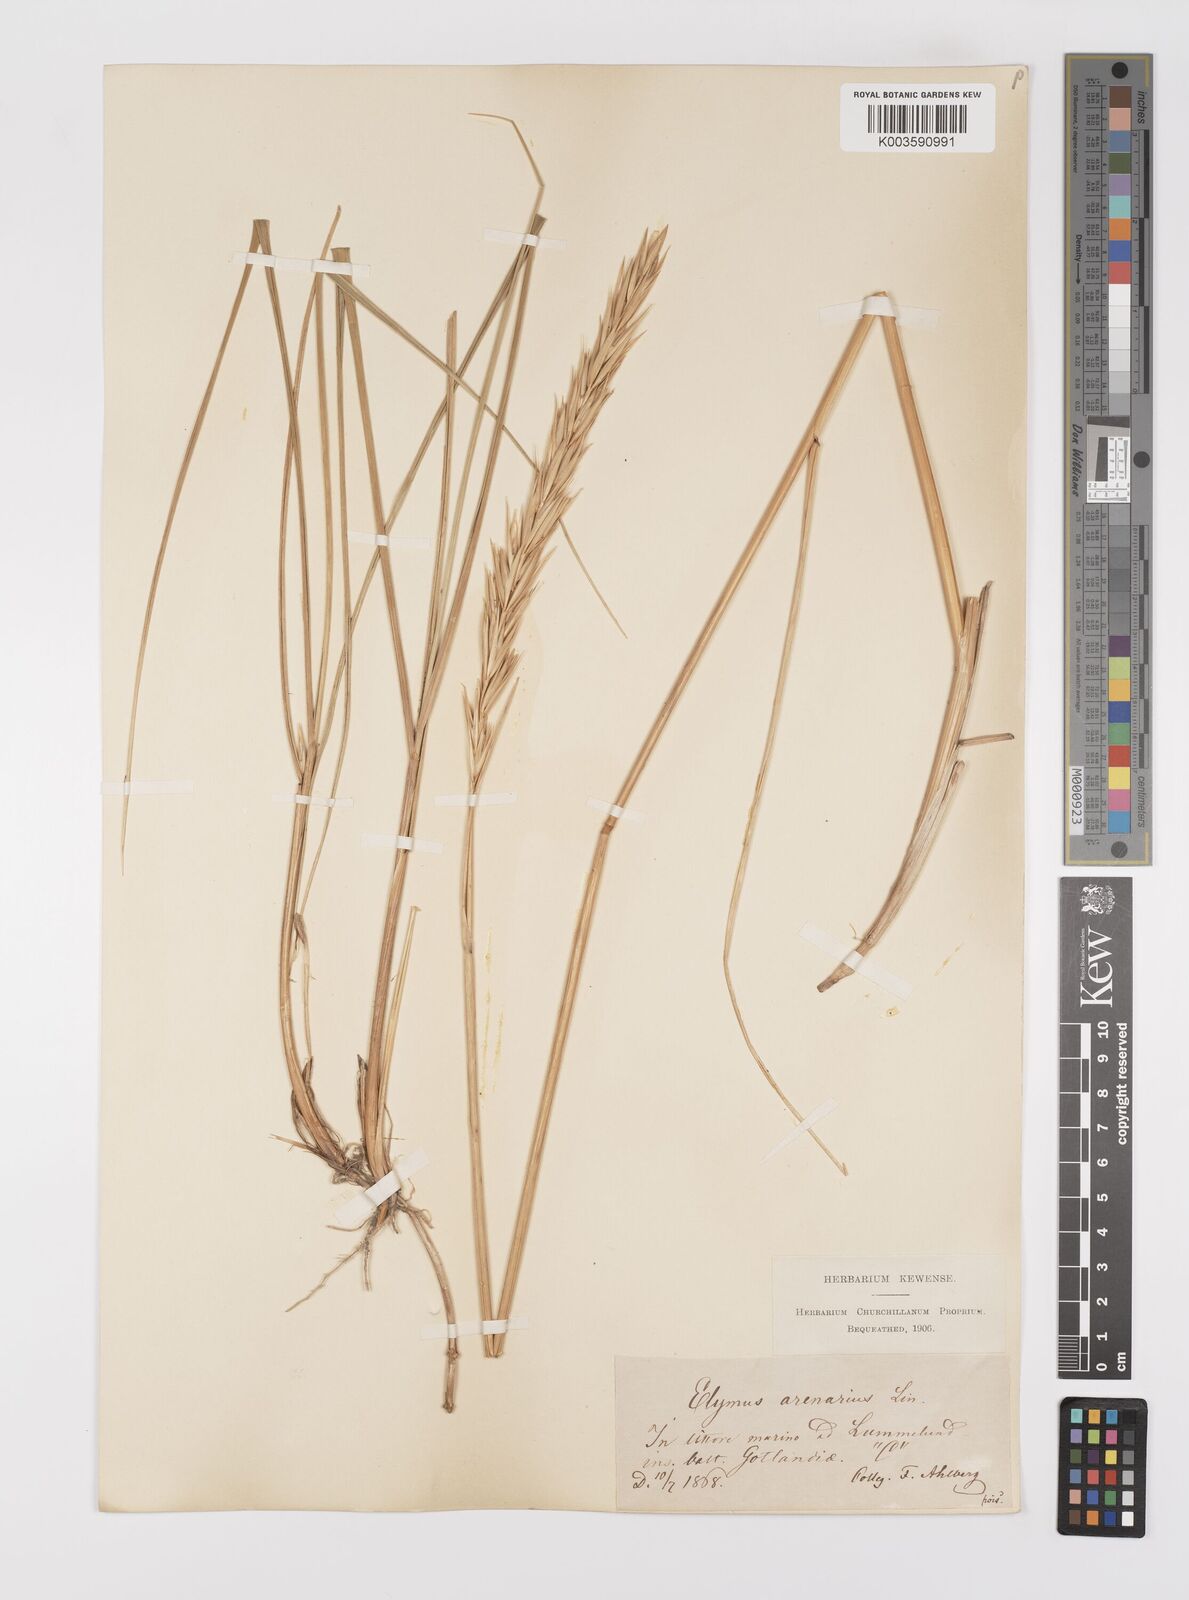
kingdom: Plantae
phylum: Tracheophyta
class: Liliopsida
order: Poales
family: Poaceae
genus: Leymus
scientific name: Leymus arenarius
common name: Lyme-grass
